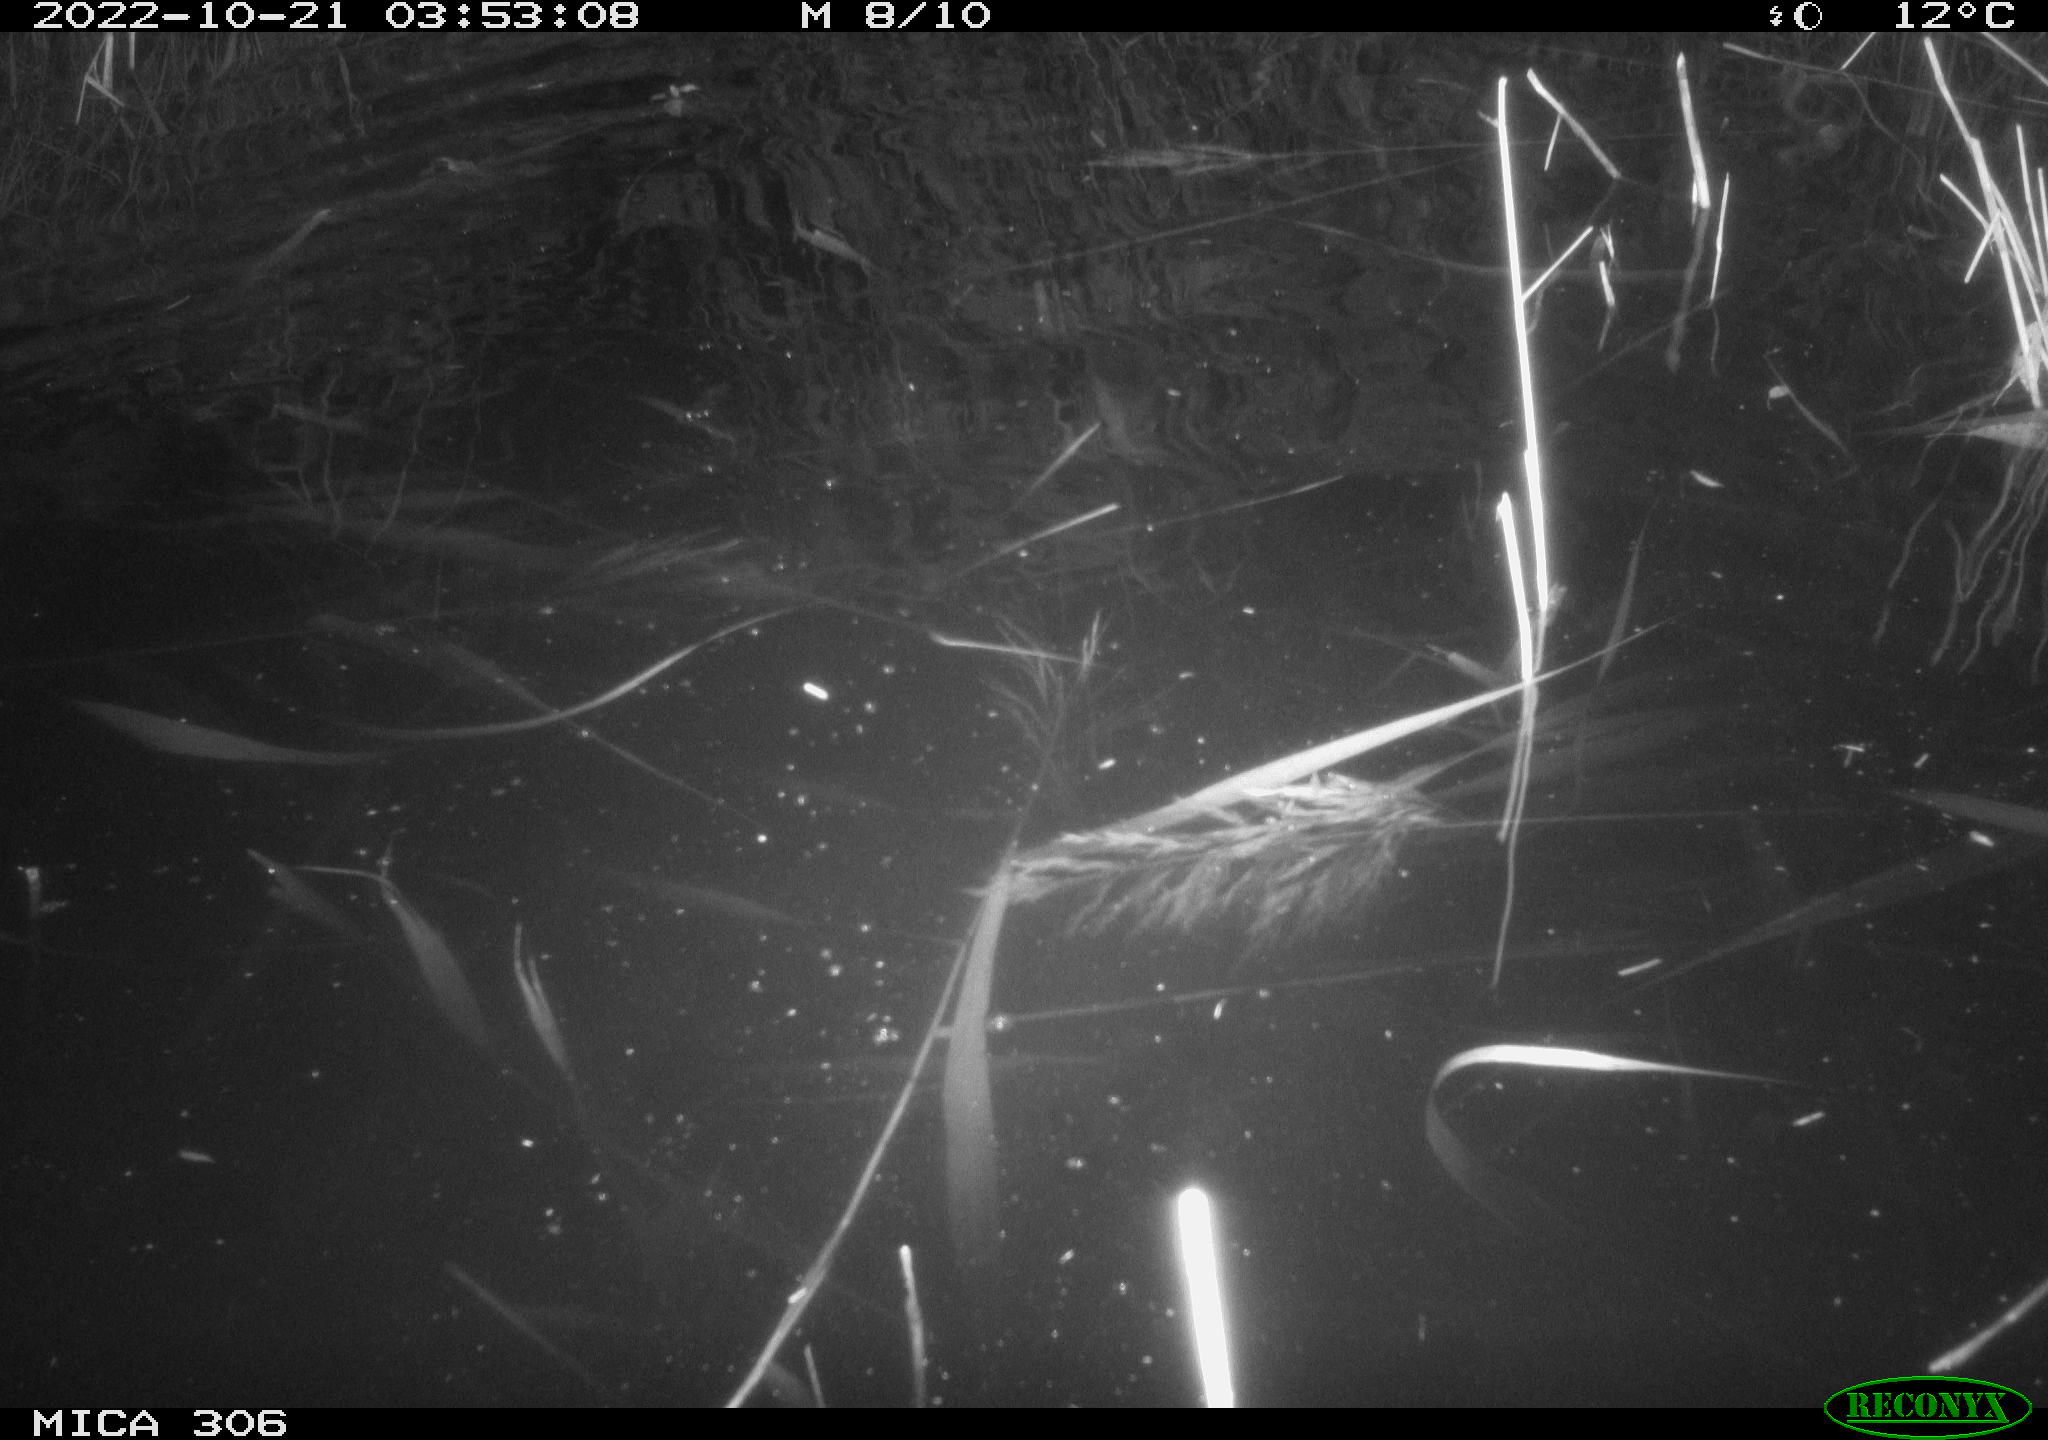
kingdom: Animalia
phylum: Chordata
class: Mammalia
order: Rodentia
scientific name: Rodentia
